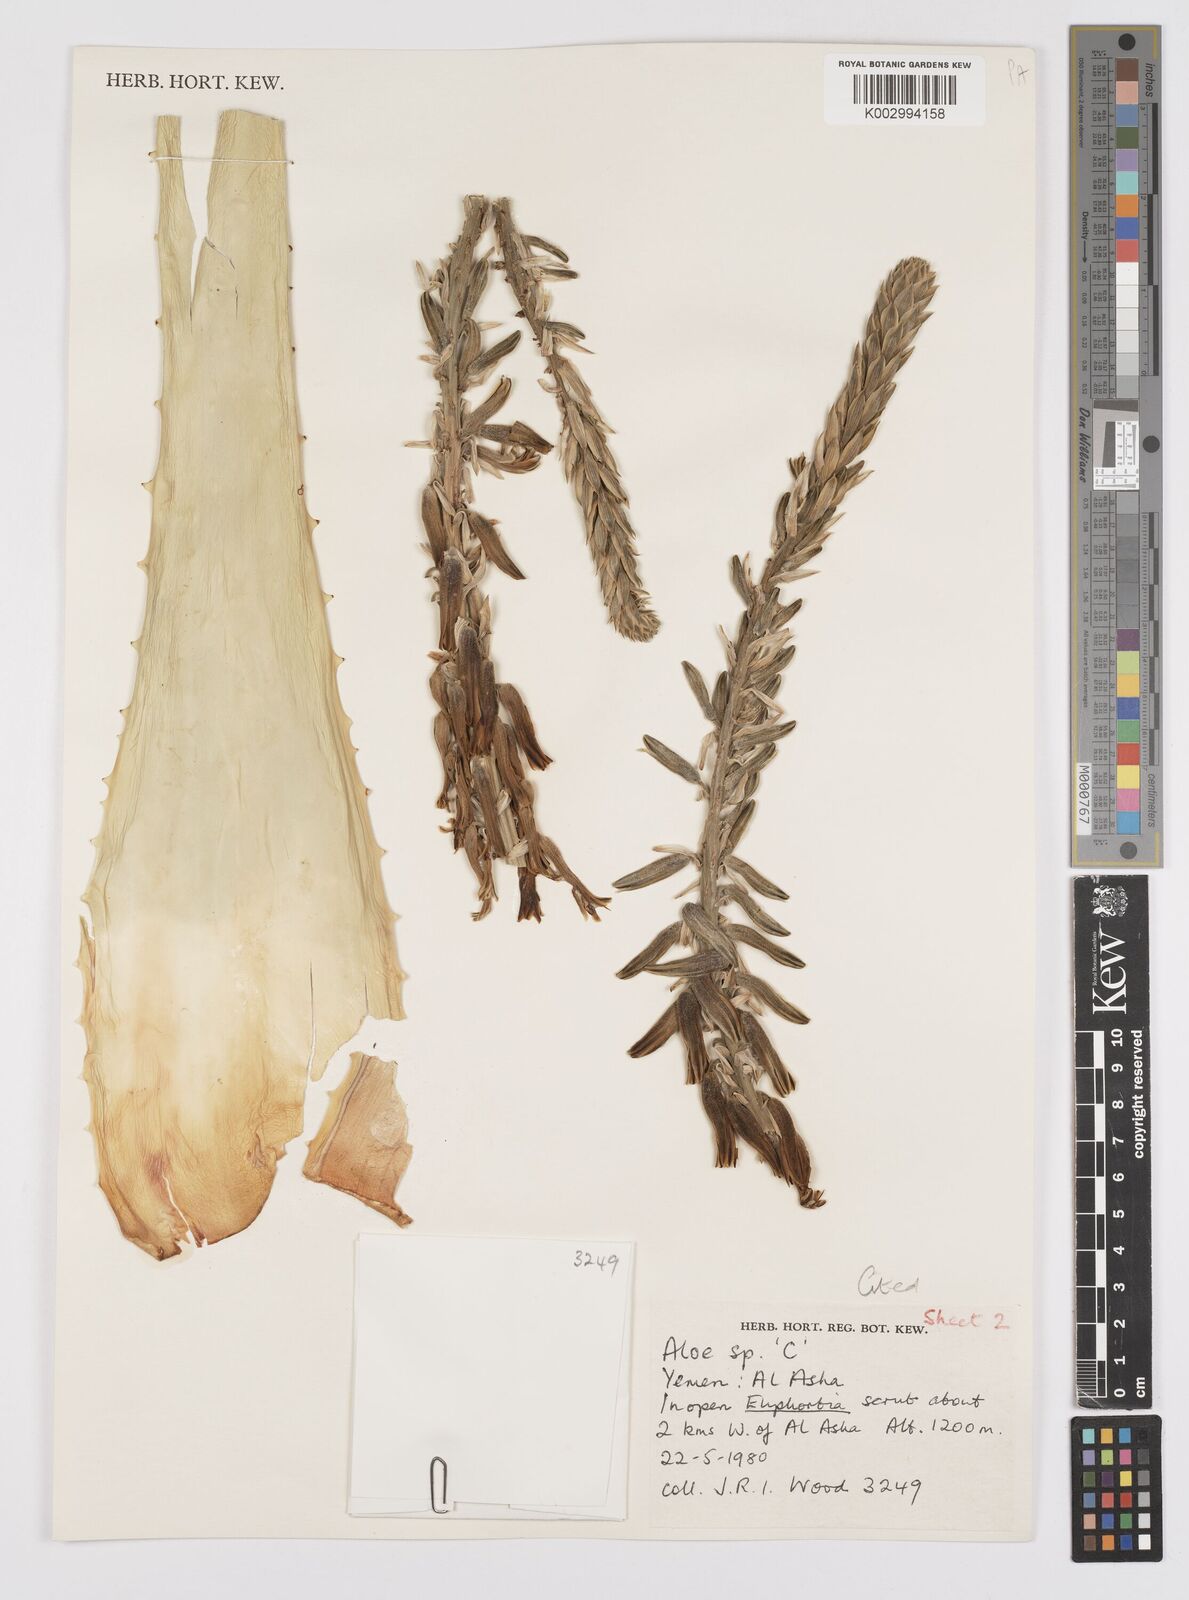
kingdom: Plantae
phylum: Tracheophyta
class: Liliopsida
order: Asparagales
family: Asphodelaceae
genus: Aloe
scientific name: Aloe
